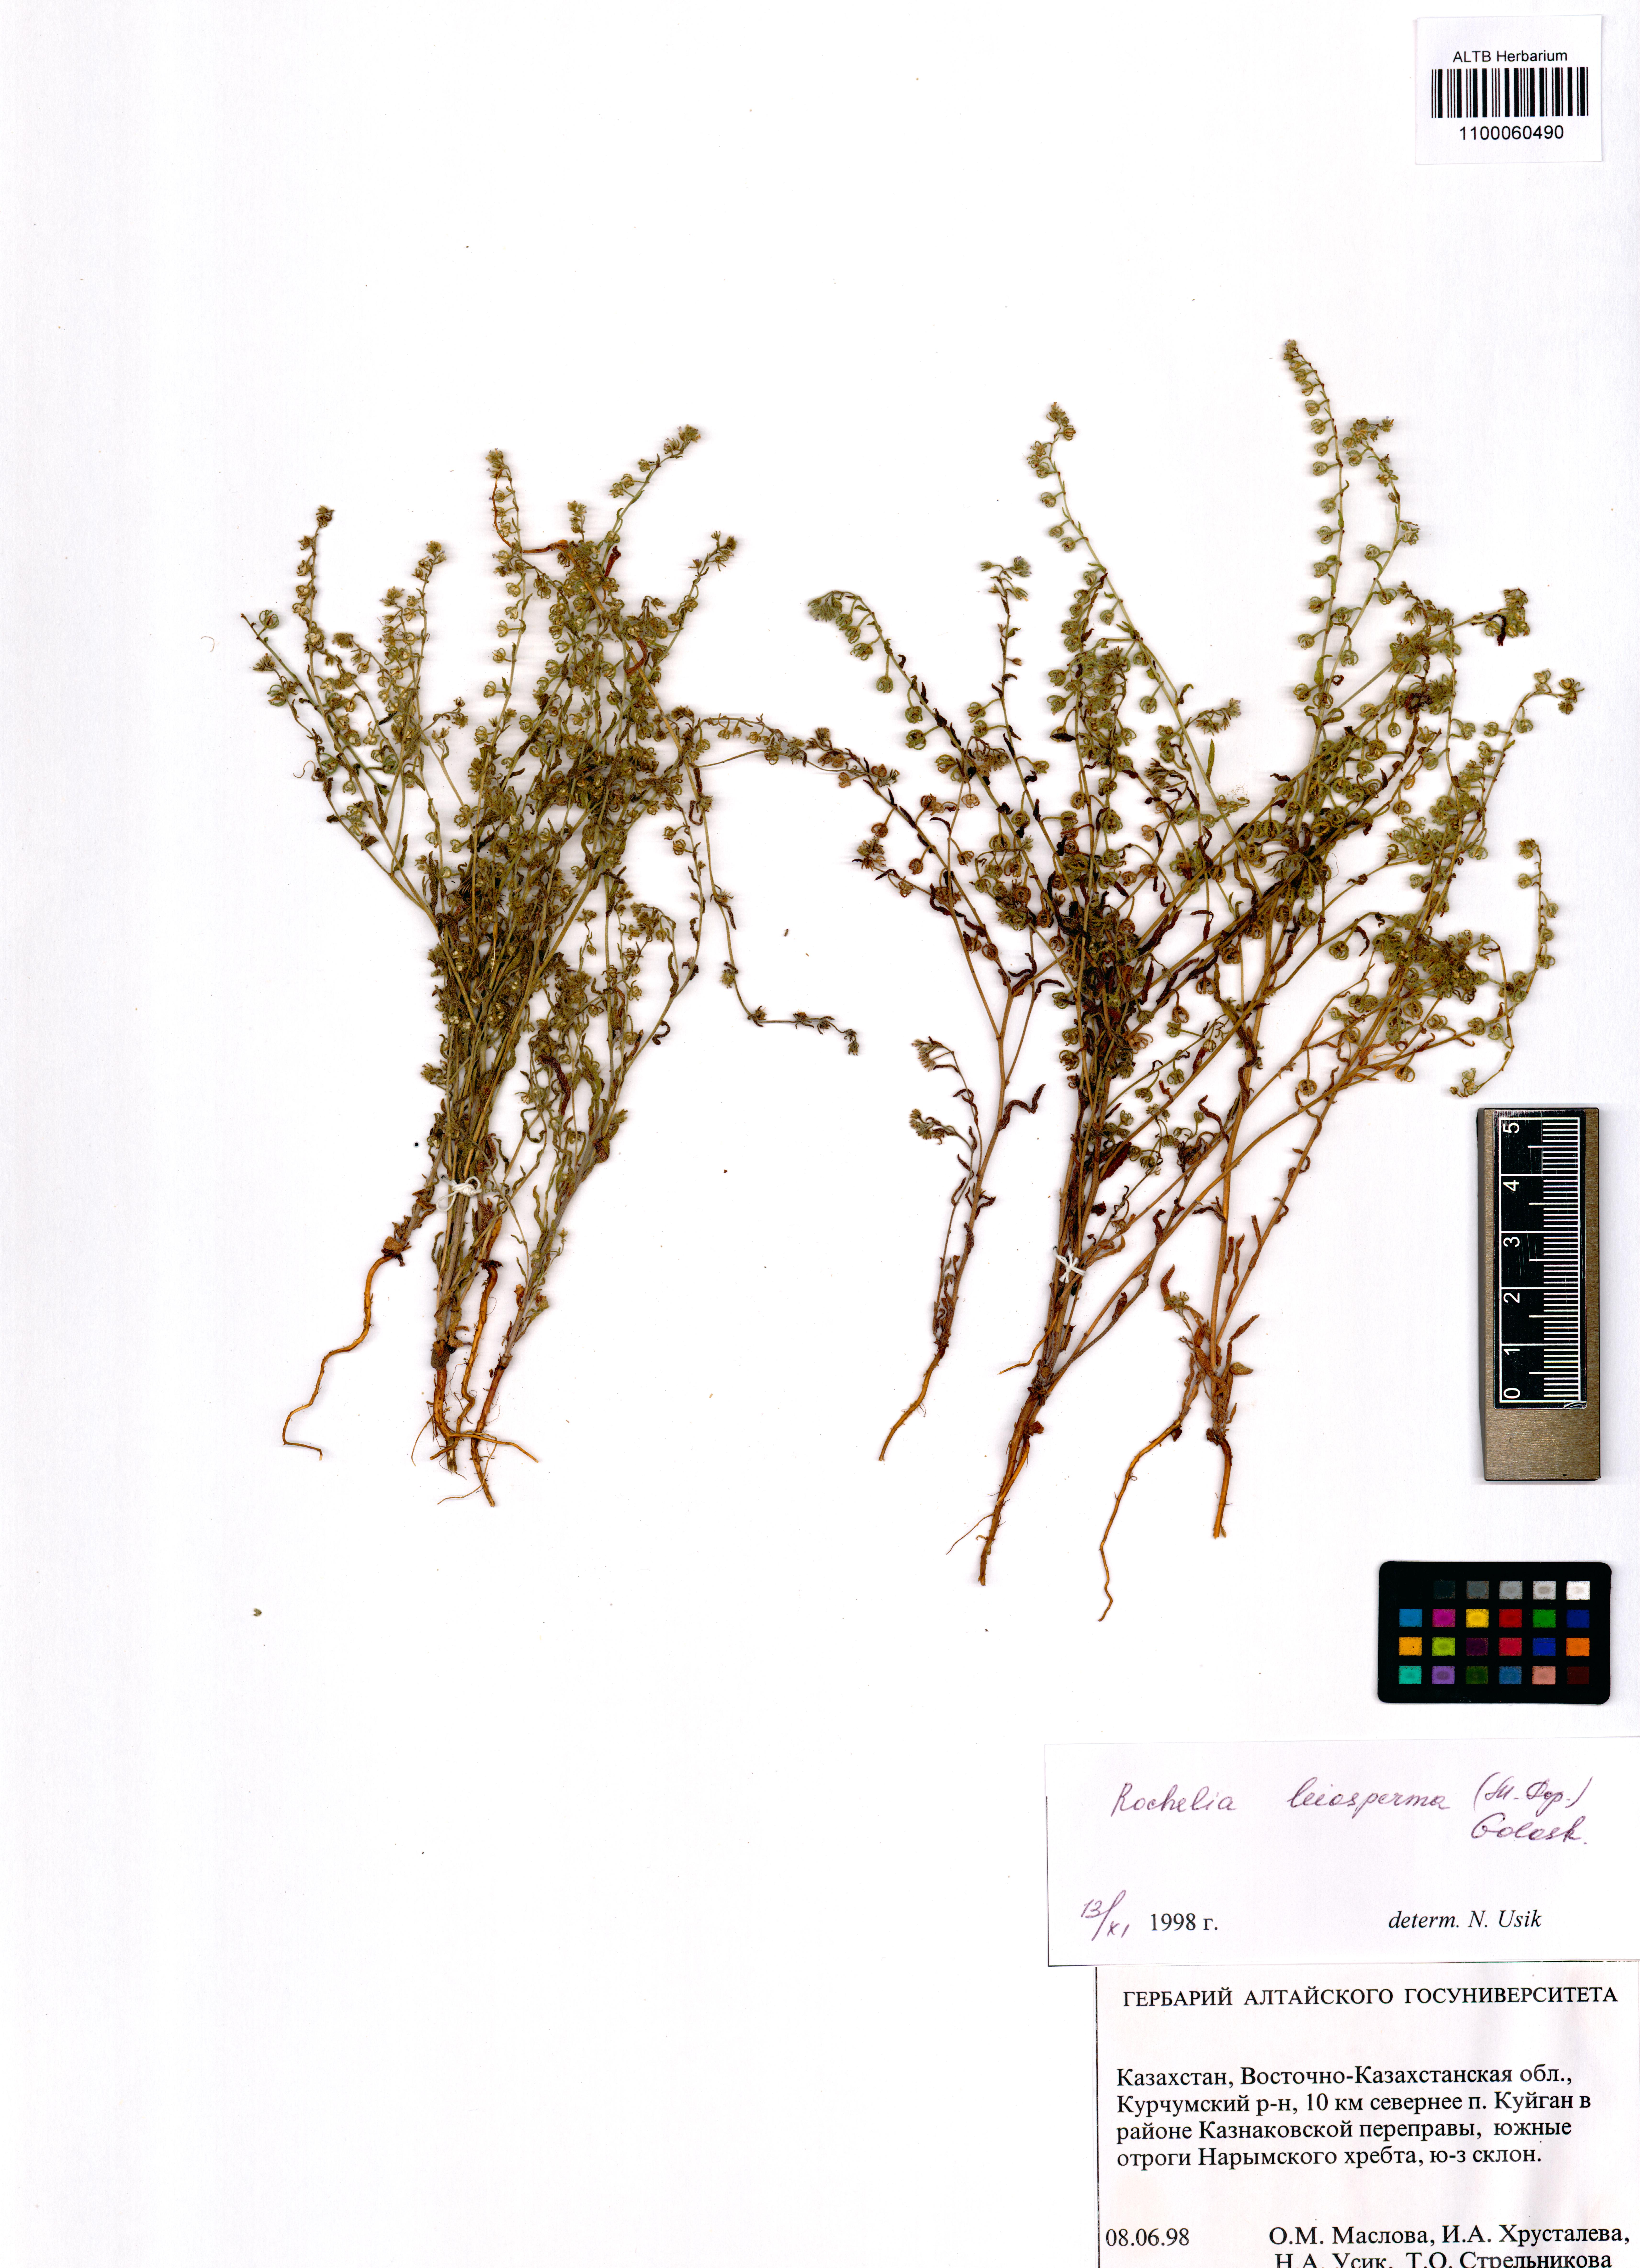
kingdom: Plantae
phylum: Tracheophyta
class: Magnoliopsida
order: Boraginales
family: Boraginaceae
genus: Rochelia
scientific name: Rochelia leiosperma
